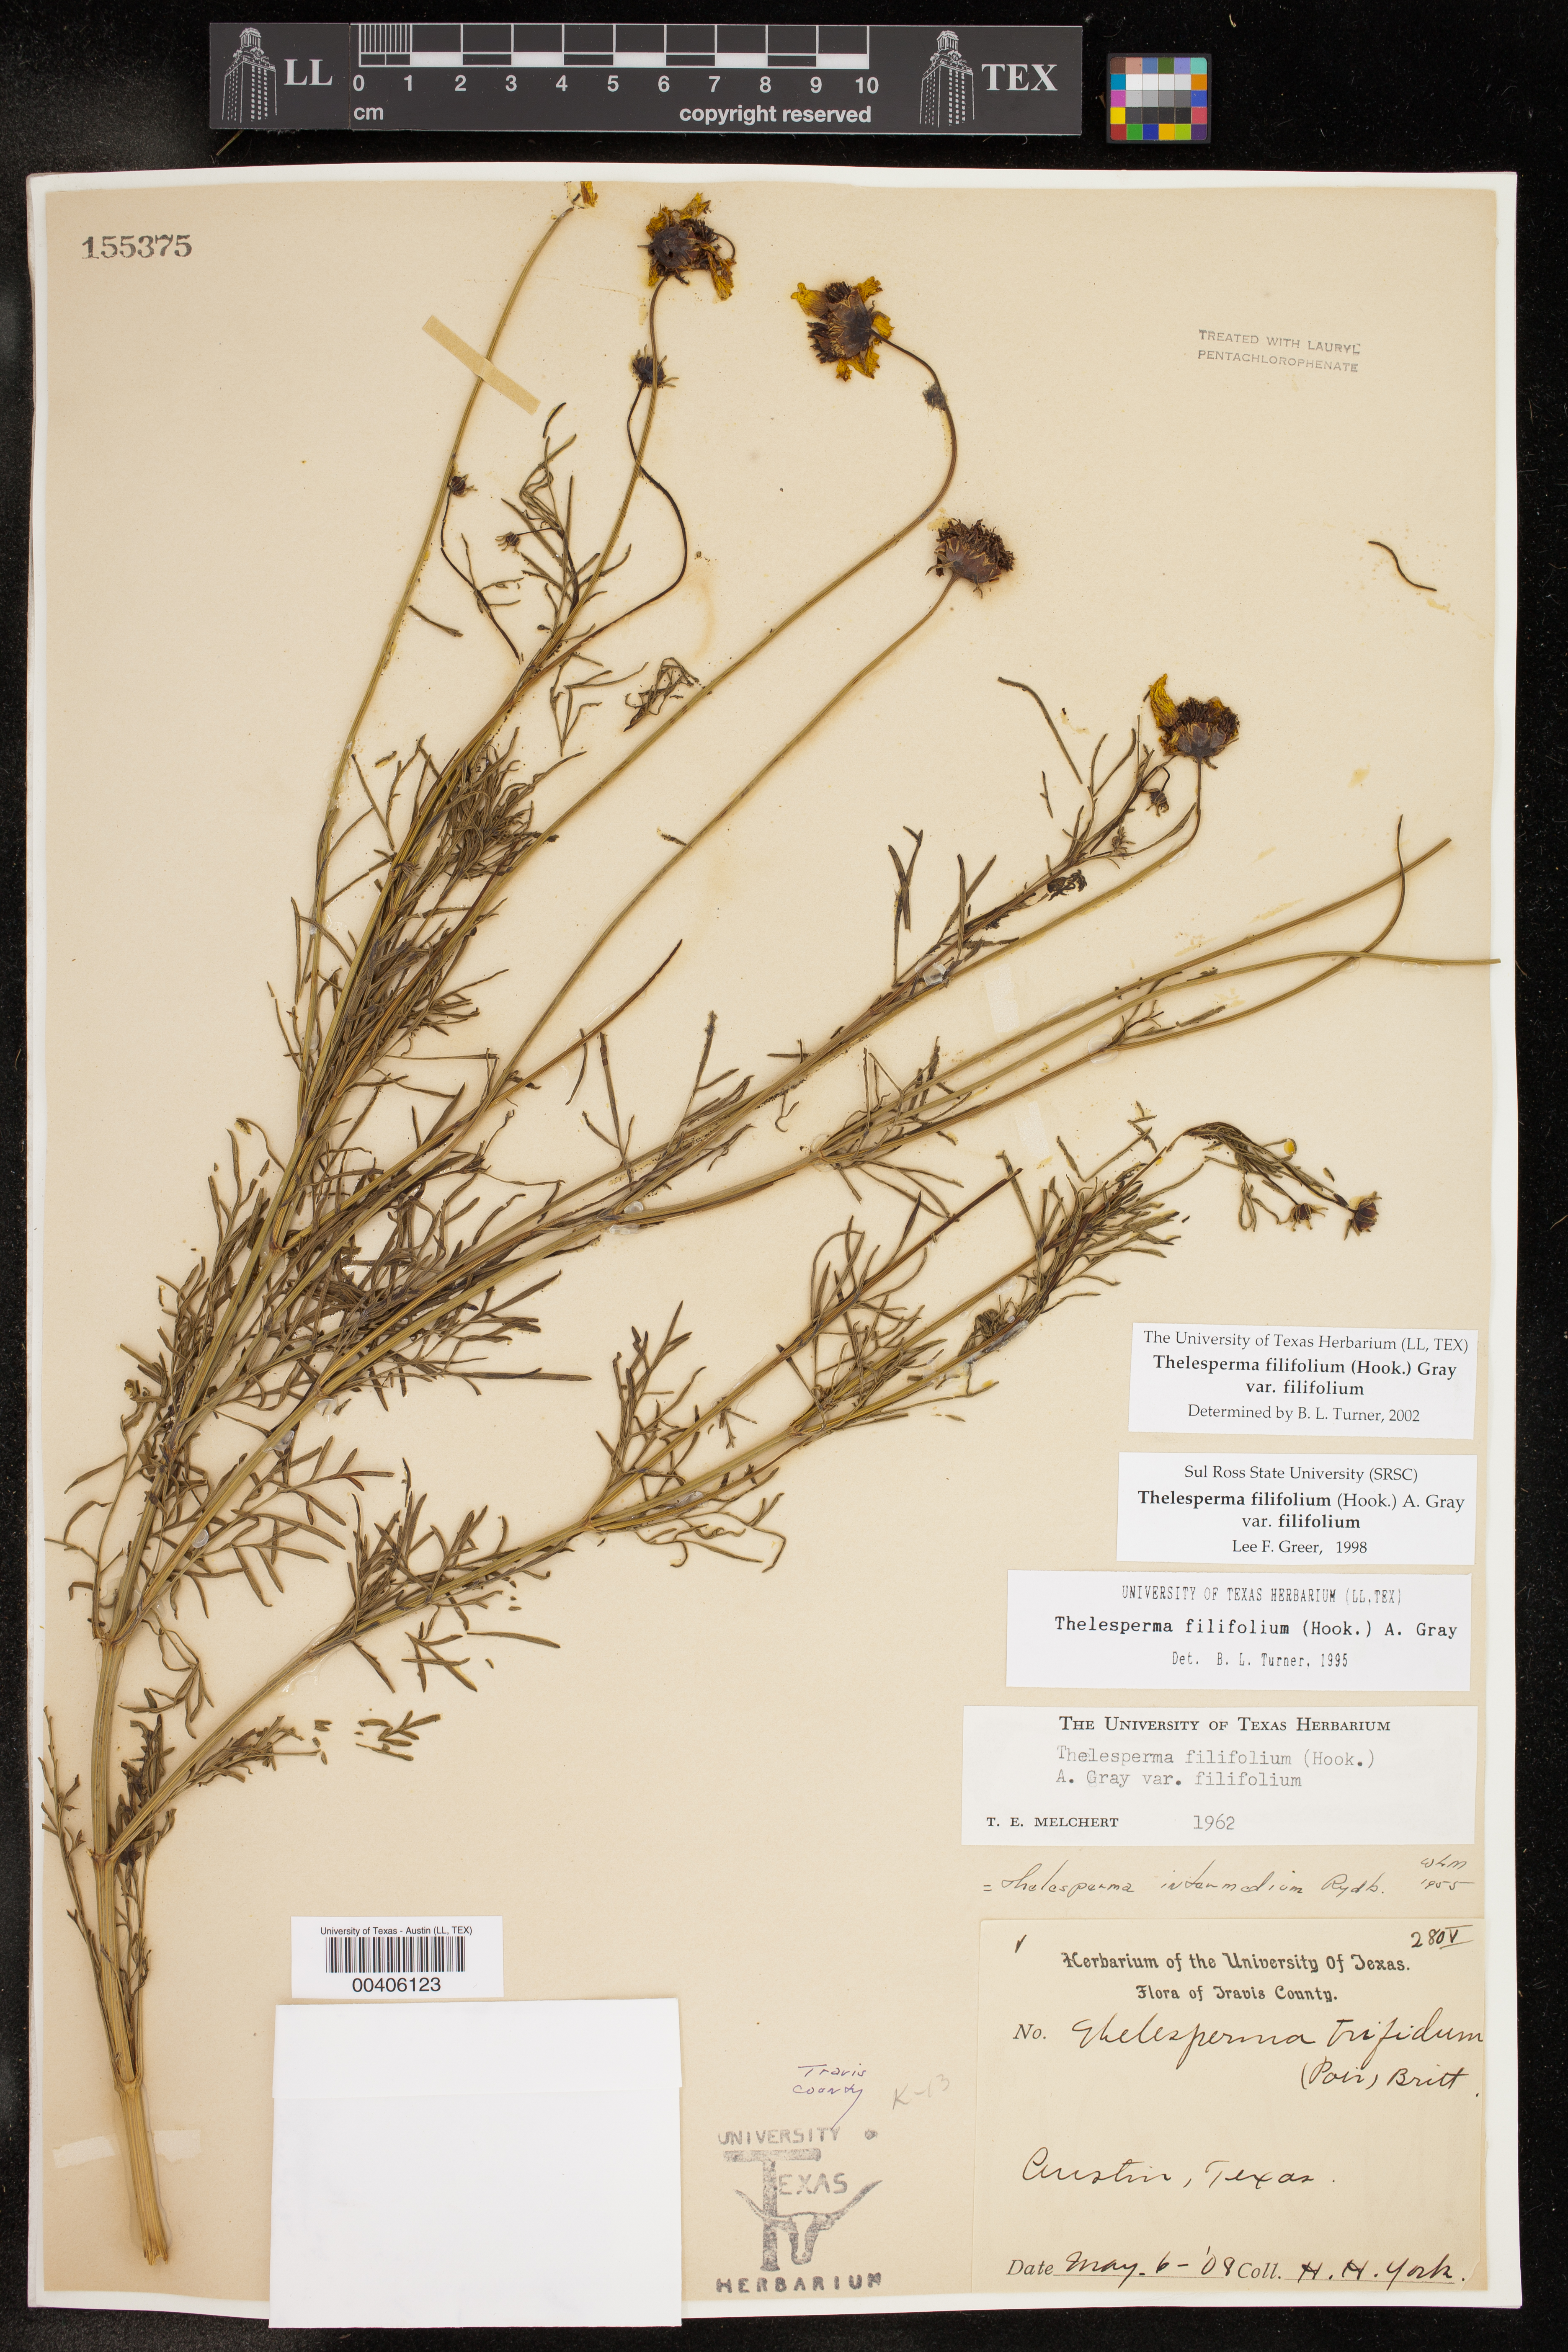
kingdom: Plantae
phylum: Tracheophyta
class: Magnoliopsida
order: Asterales
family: Asteraceae
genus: Thelesperma
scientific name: Thelesperma filifolium
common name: Stiff greenthread
